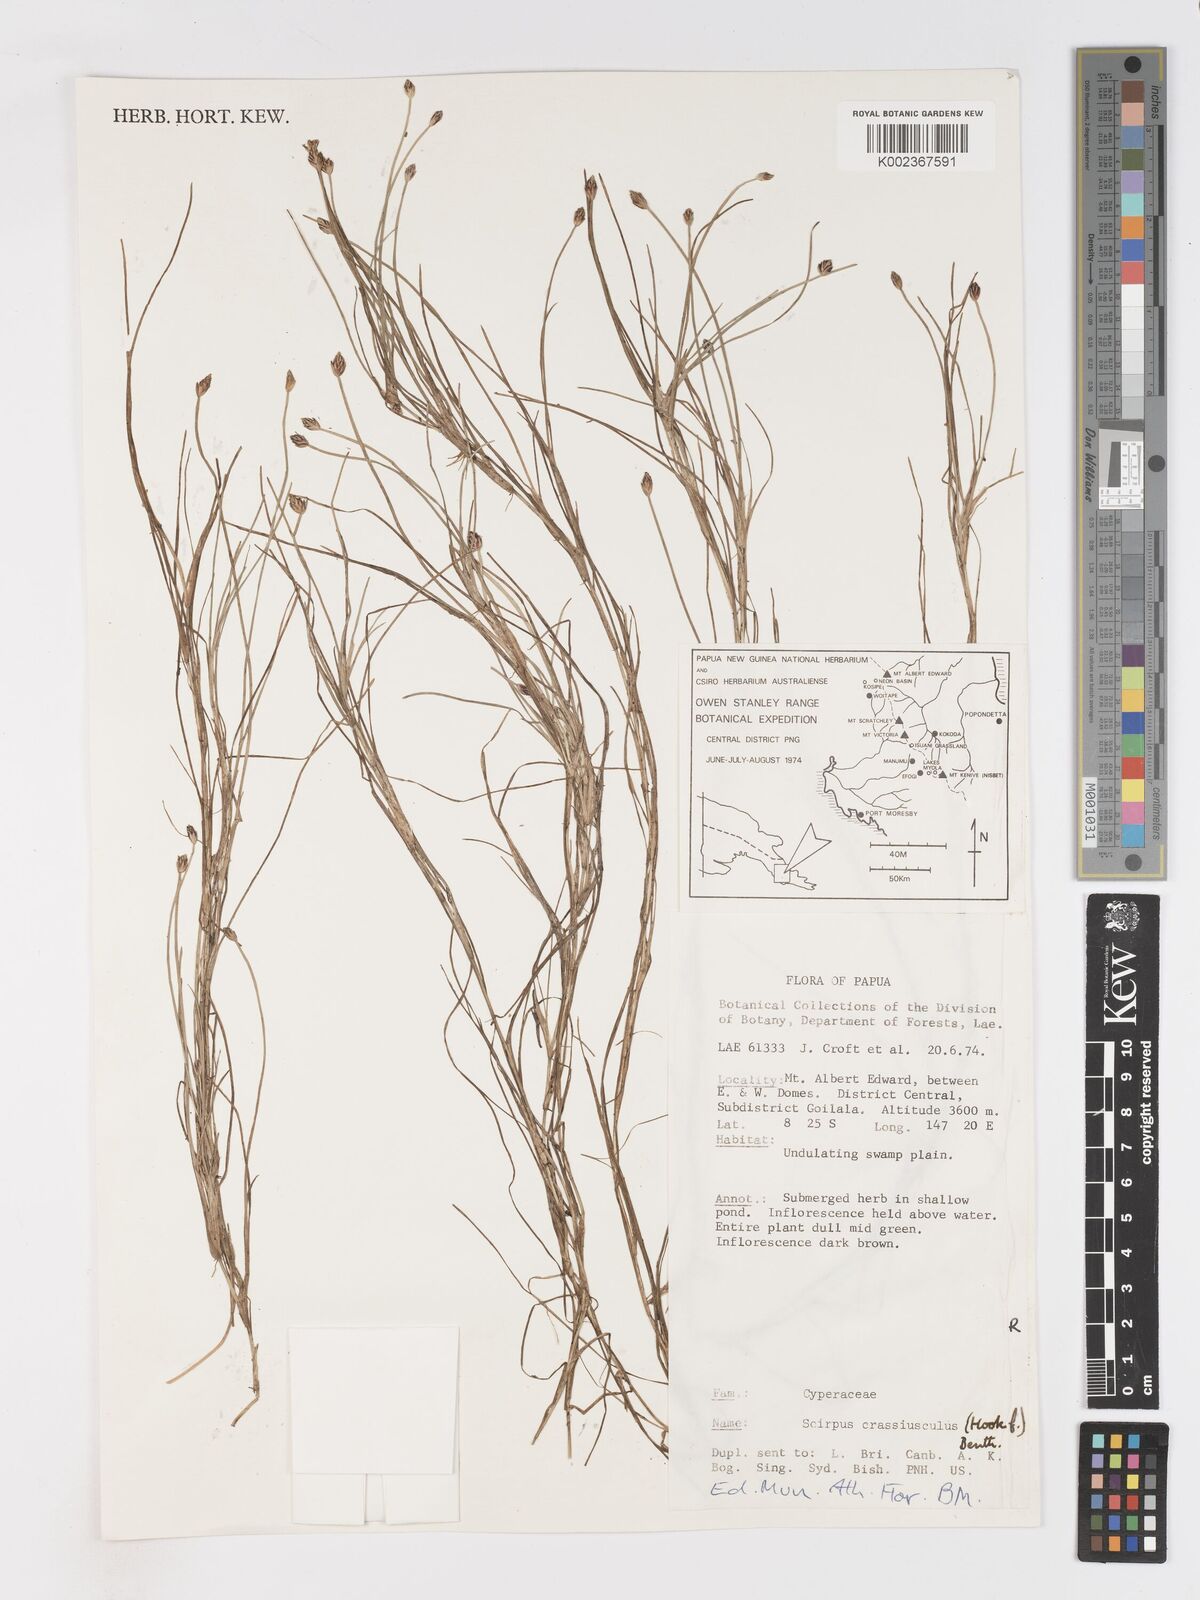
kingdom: Plantae
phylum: Tracheophyta
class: Liliopsida
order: Poales
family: Cyperaceae
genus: Isolepis
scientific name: Isolepis crassiuscula
